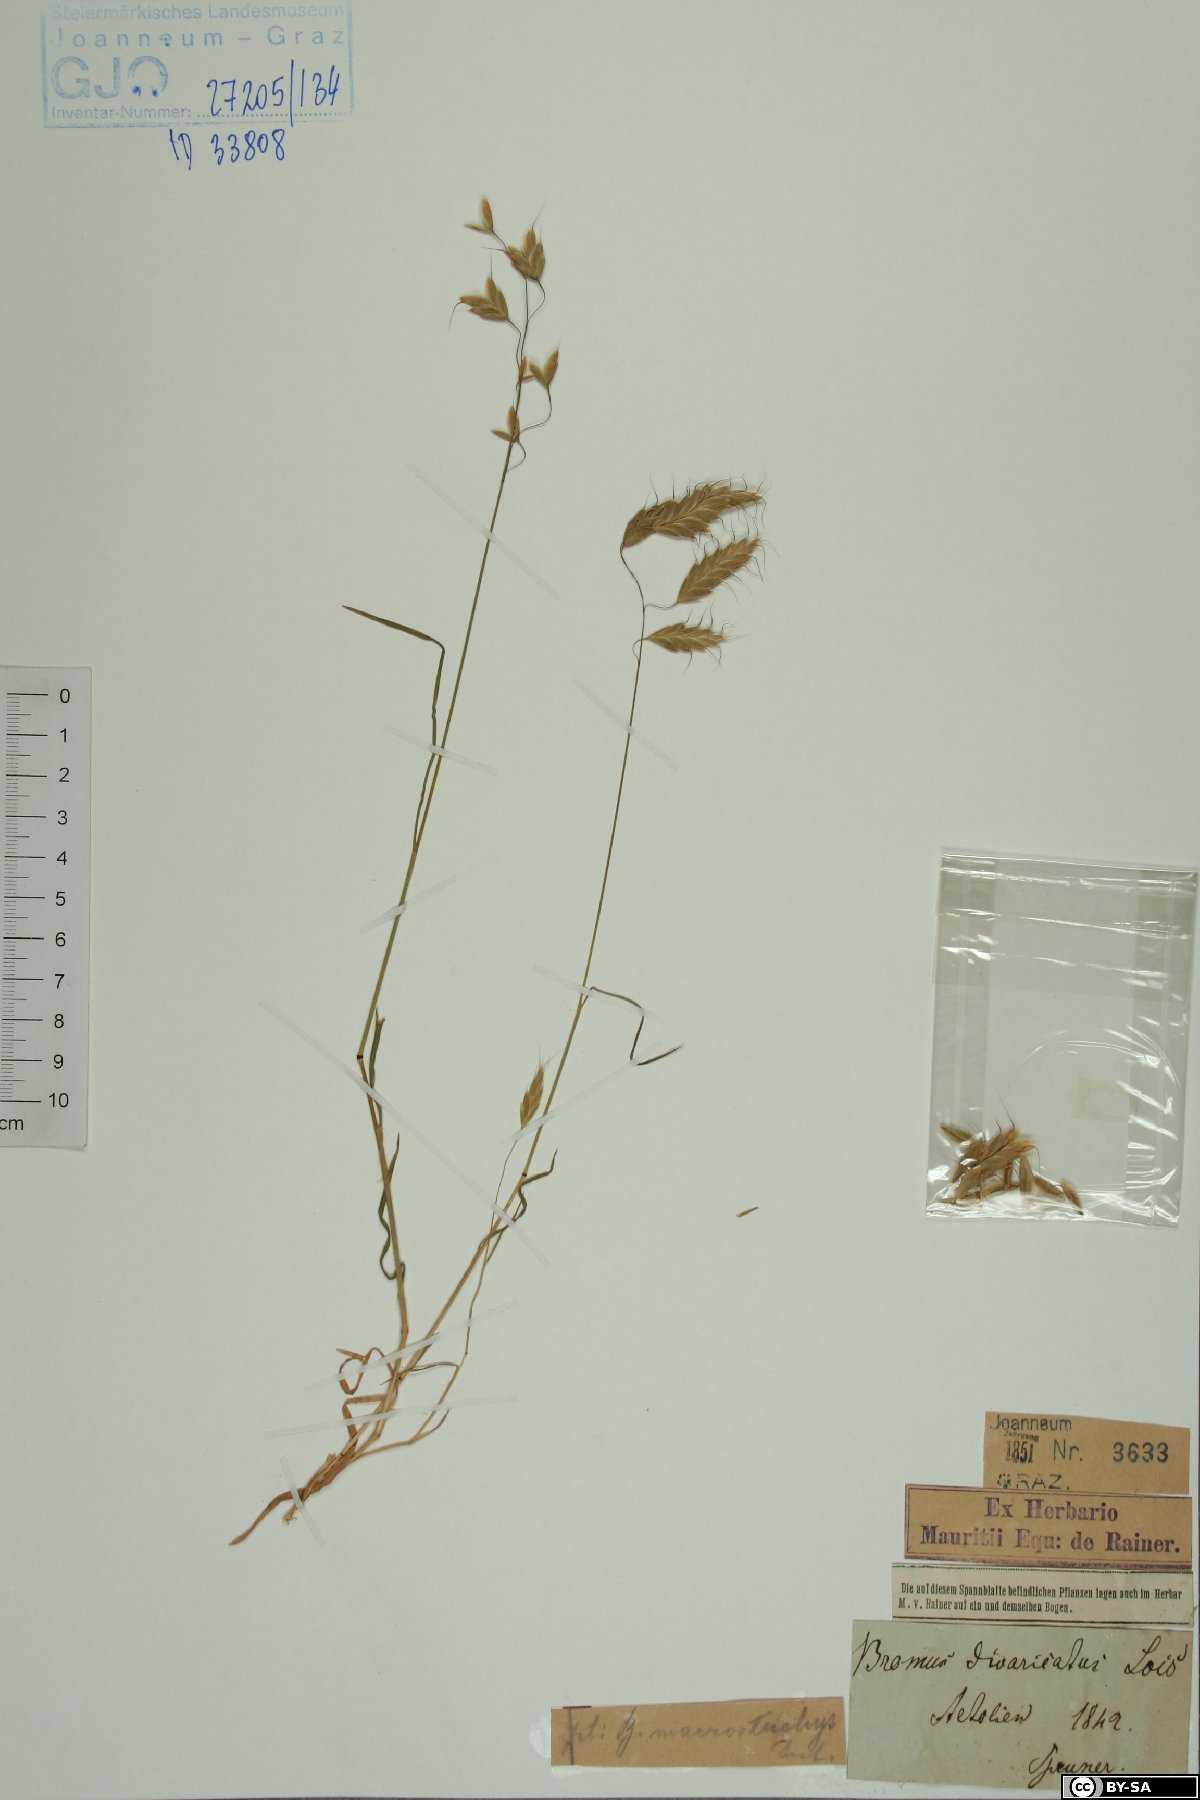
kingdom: Plantae
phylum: Tracheophyta
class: Liliopsida
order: Poales
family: Poaceae
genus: Bromus
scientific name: Bromus lanceolatus
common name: Mediterranean brome
